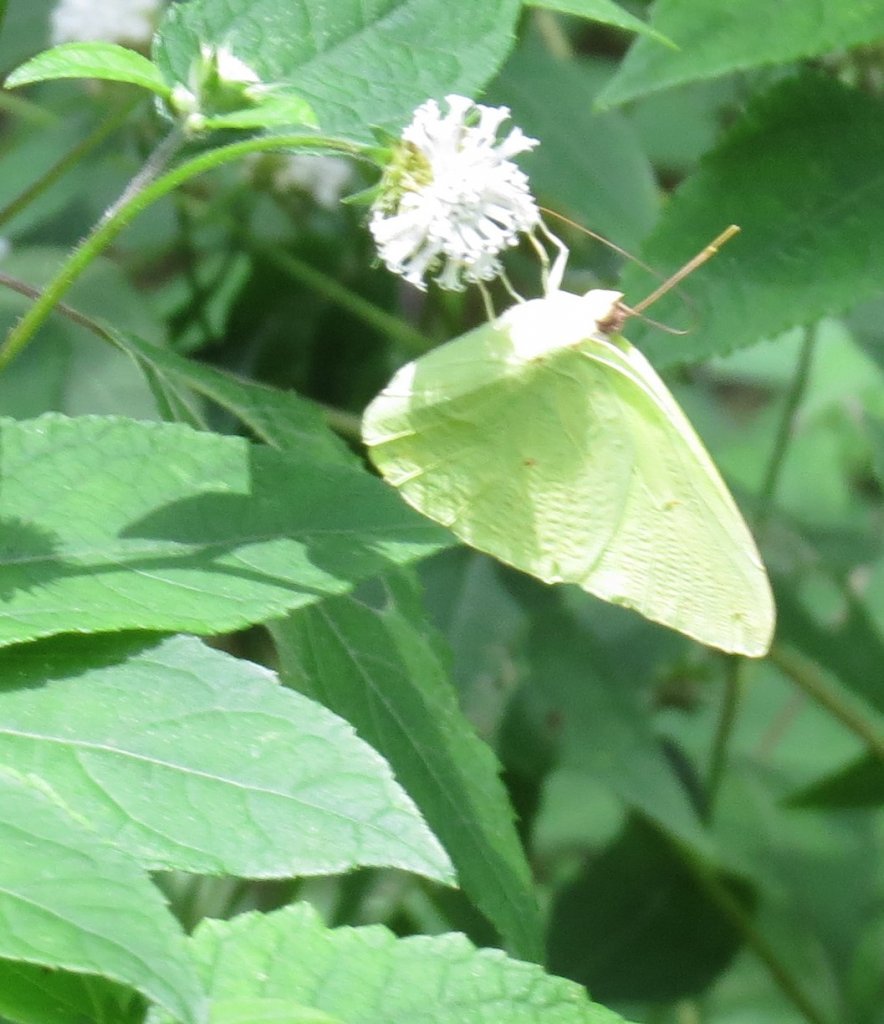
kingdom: Animalia
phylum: Arthropoda
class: Insecta
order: Lepidoptera
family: Pieridae
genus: Phoebis
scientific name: Phoebis sennae
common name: Cloudless Sulphur
